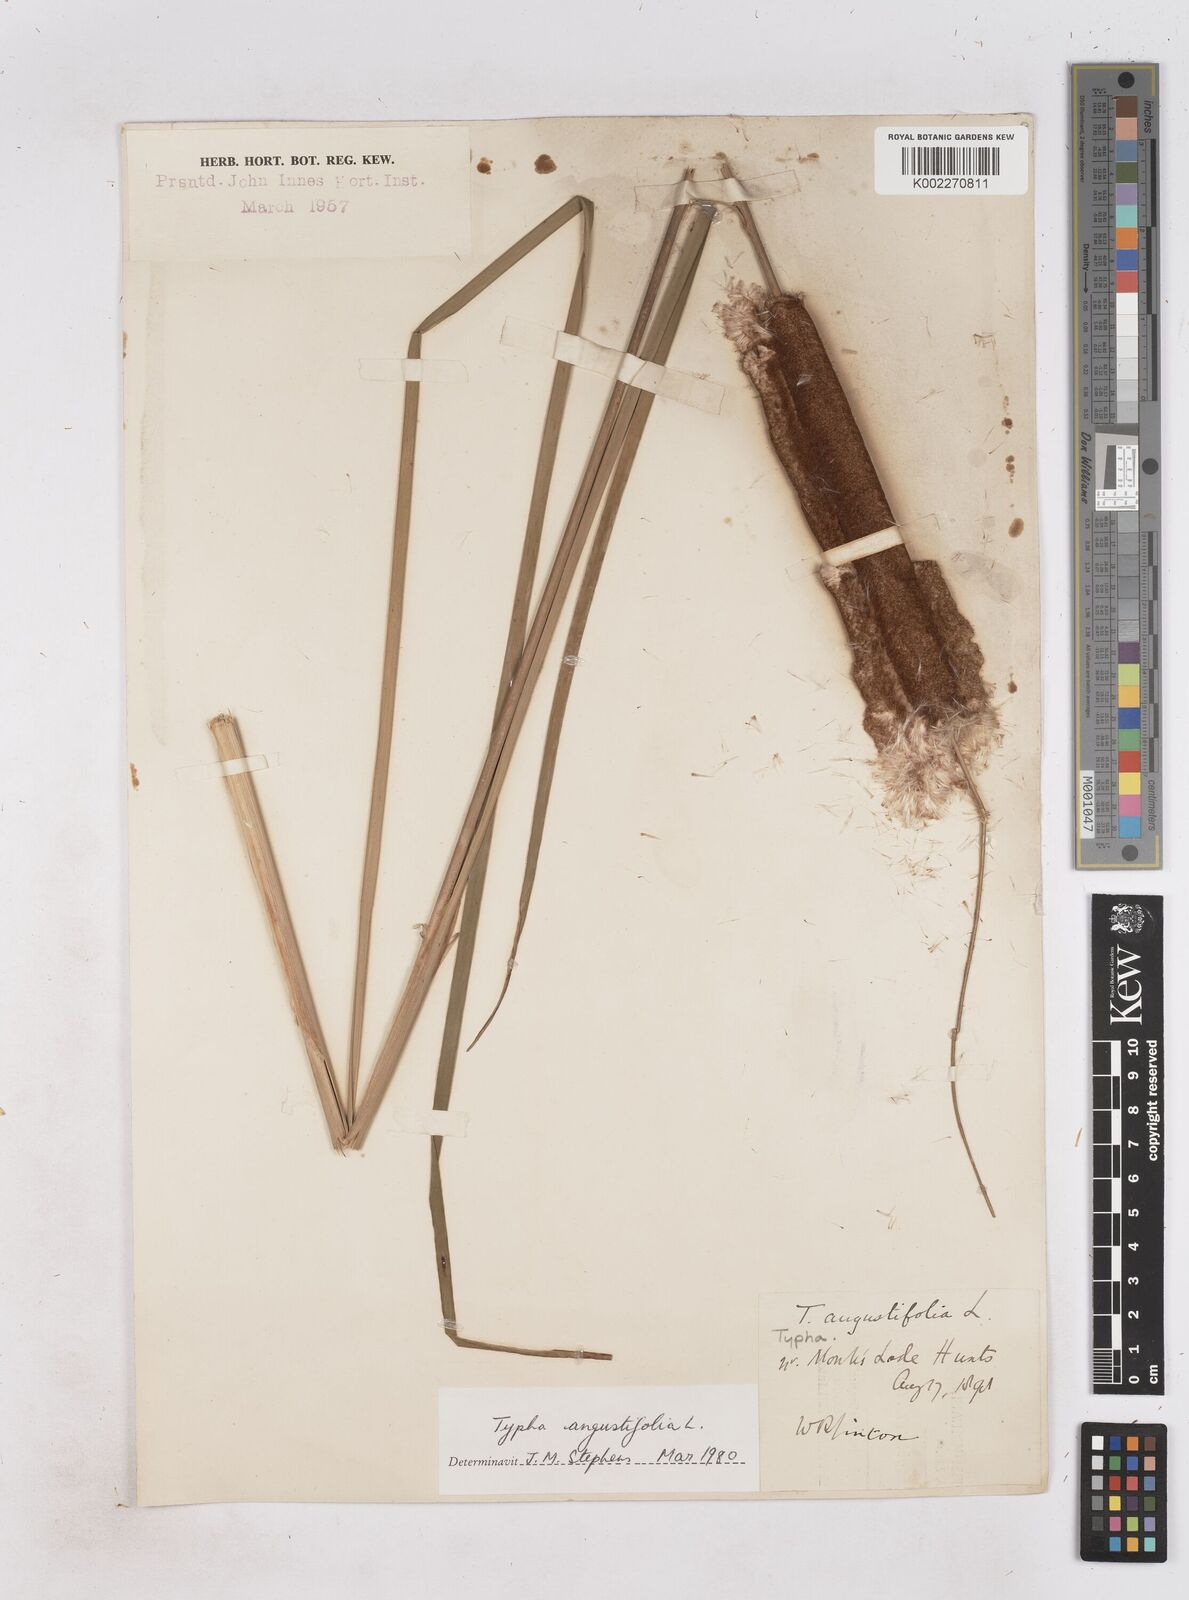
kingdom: Plantae
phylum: Tracheophyta
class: Liliopsida
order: Poales
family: Typhaceae
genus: Typha
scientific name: Typha angustifolia
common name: Lesser bulrush
